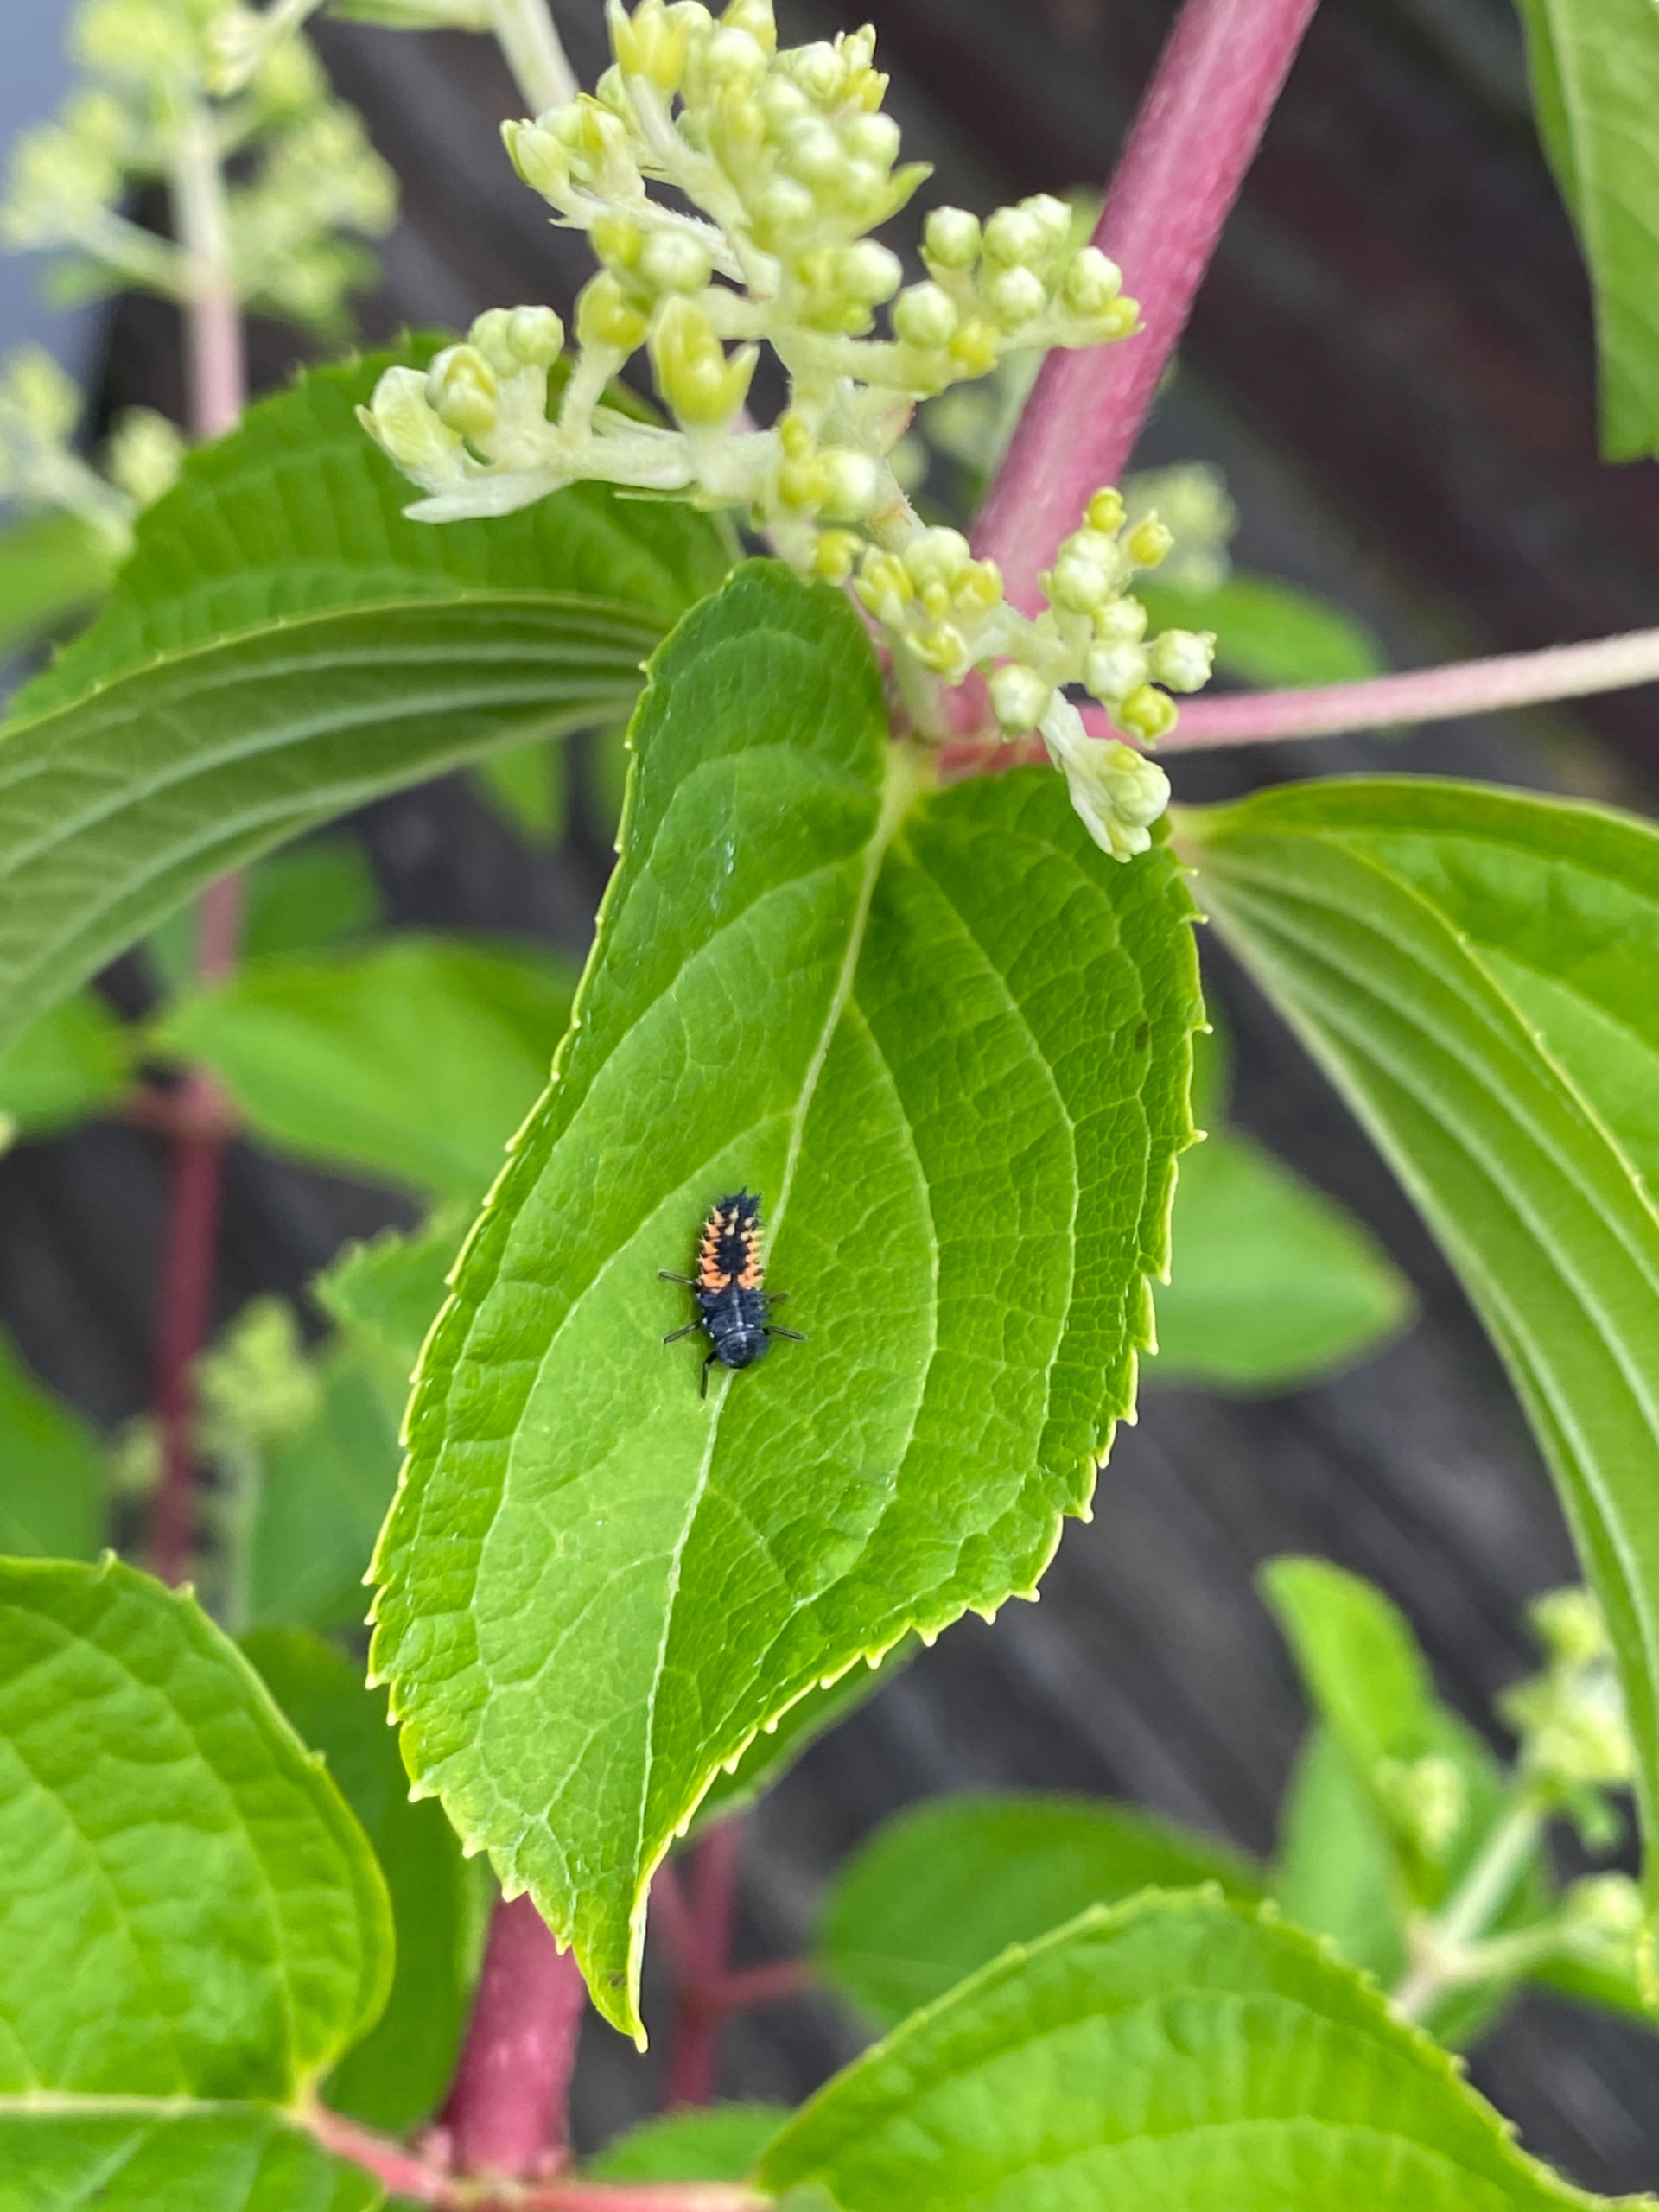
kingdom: Animalia
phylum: Arthropoda
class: Insecta
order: Coleoptera
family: Coccinellidae
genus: Harmonia
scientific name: Harmonia axyridis
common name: Harlekinmariehøne
